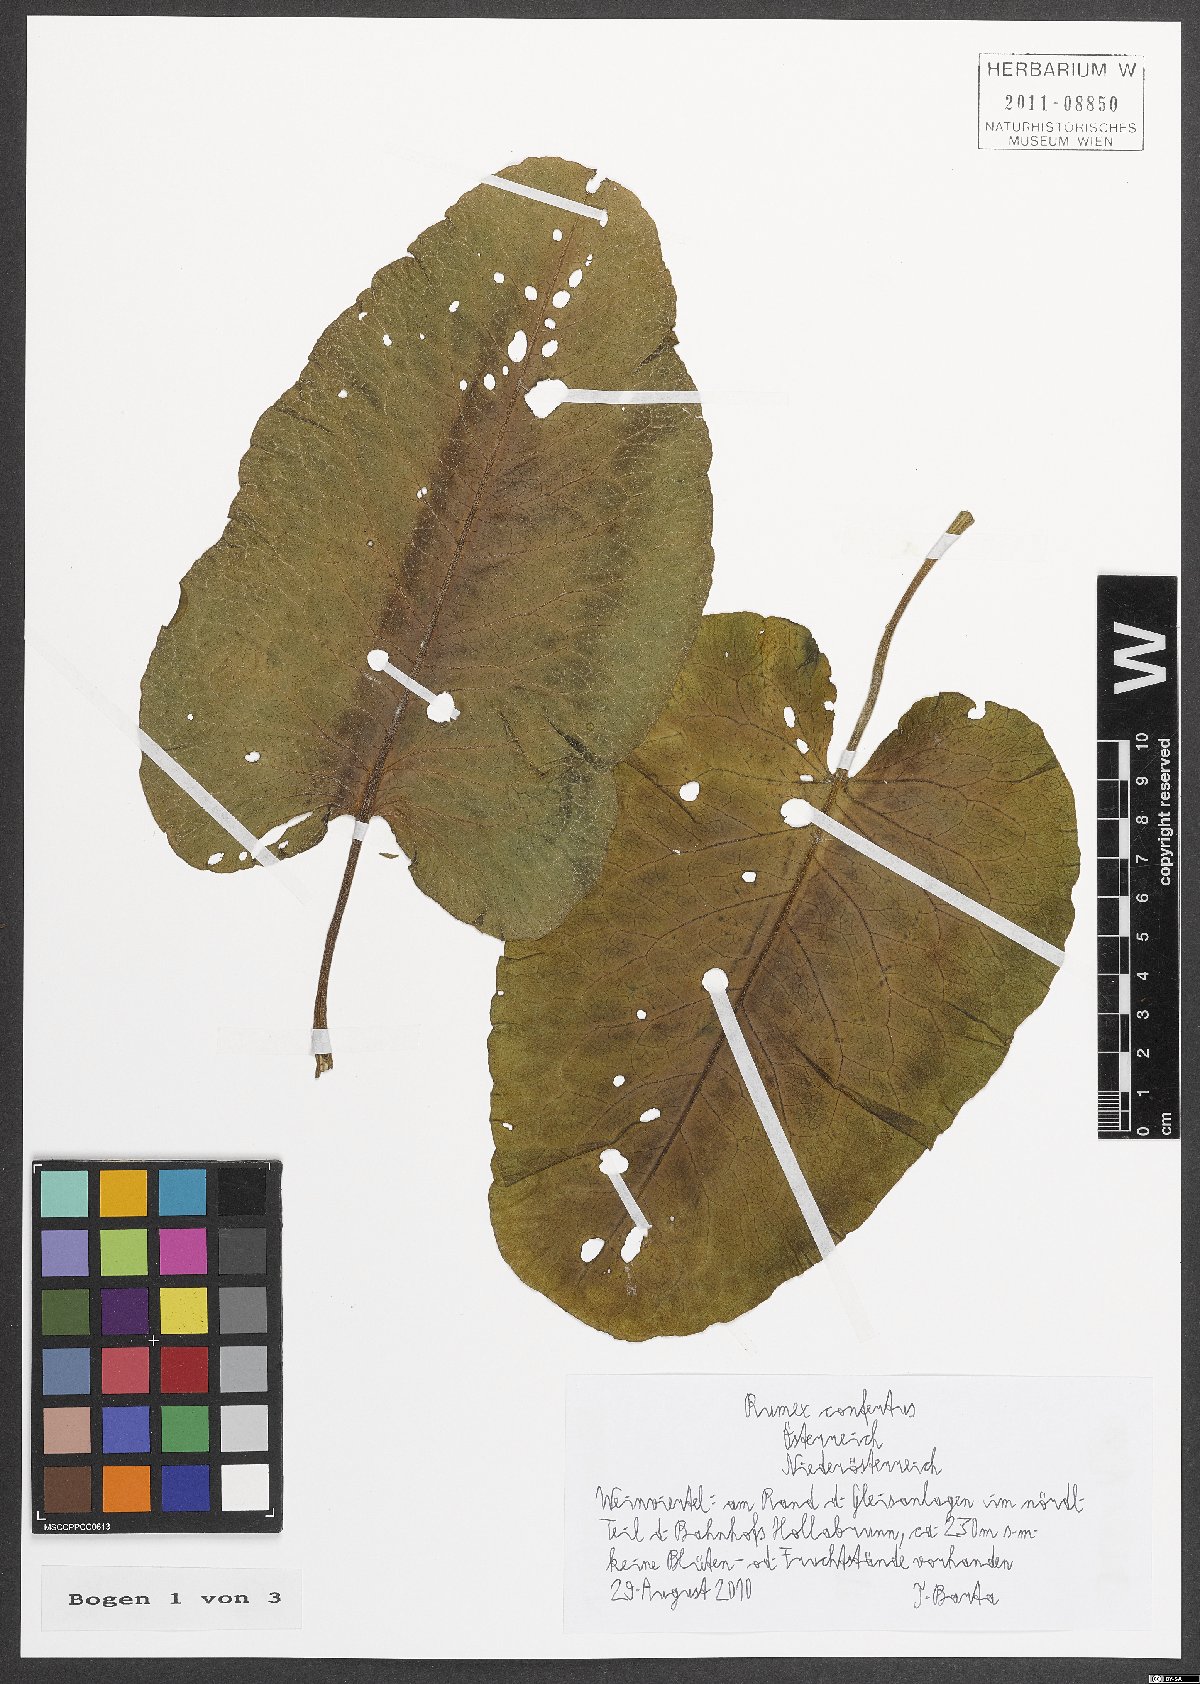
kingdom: Plantae
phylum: Tracheophyta
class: Magnoliopsida
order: Caryophyllales
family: Polygonaceae
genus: Rumex
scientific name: Rumex confertus
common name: Russian dock
